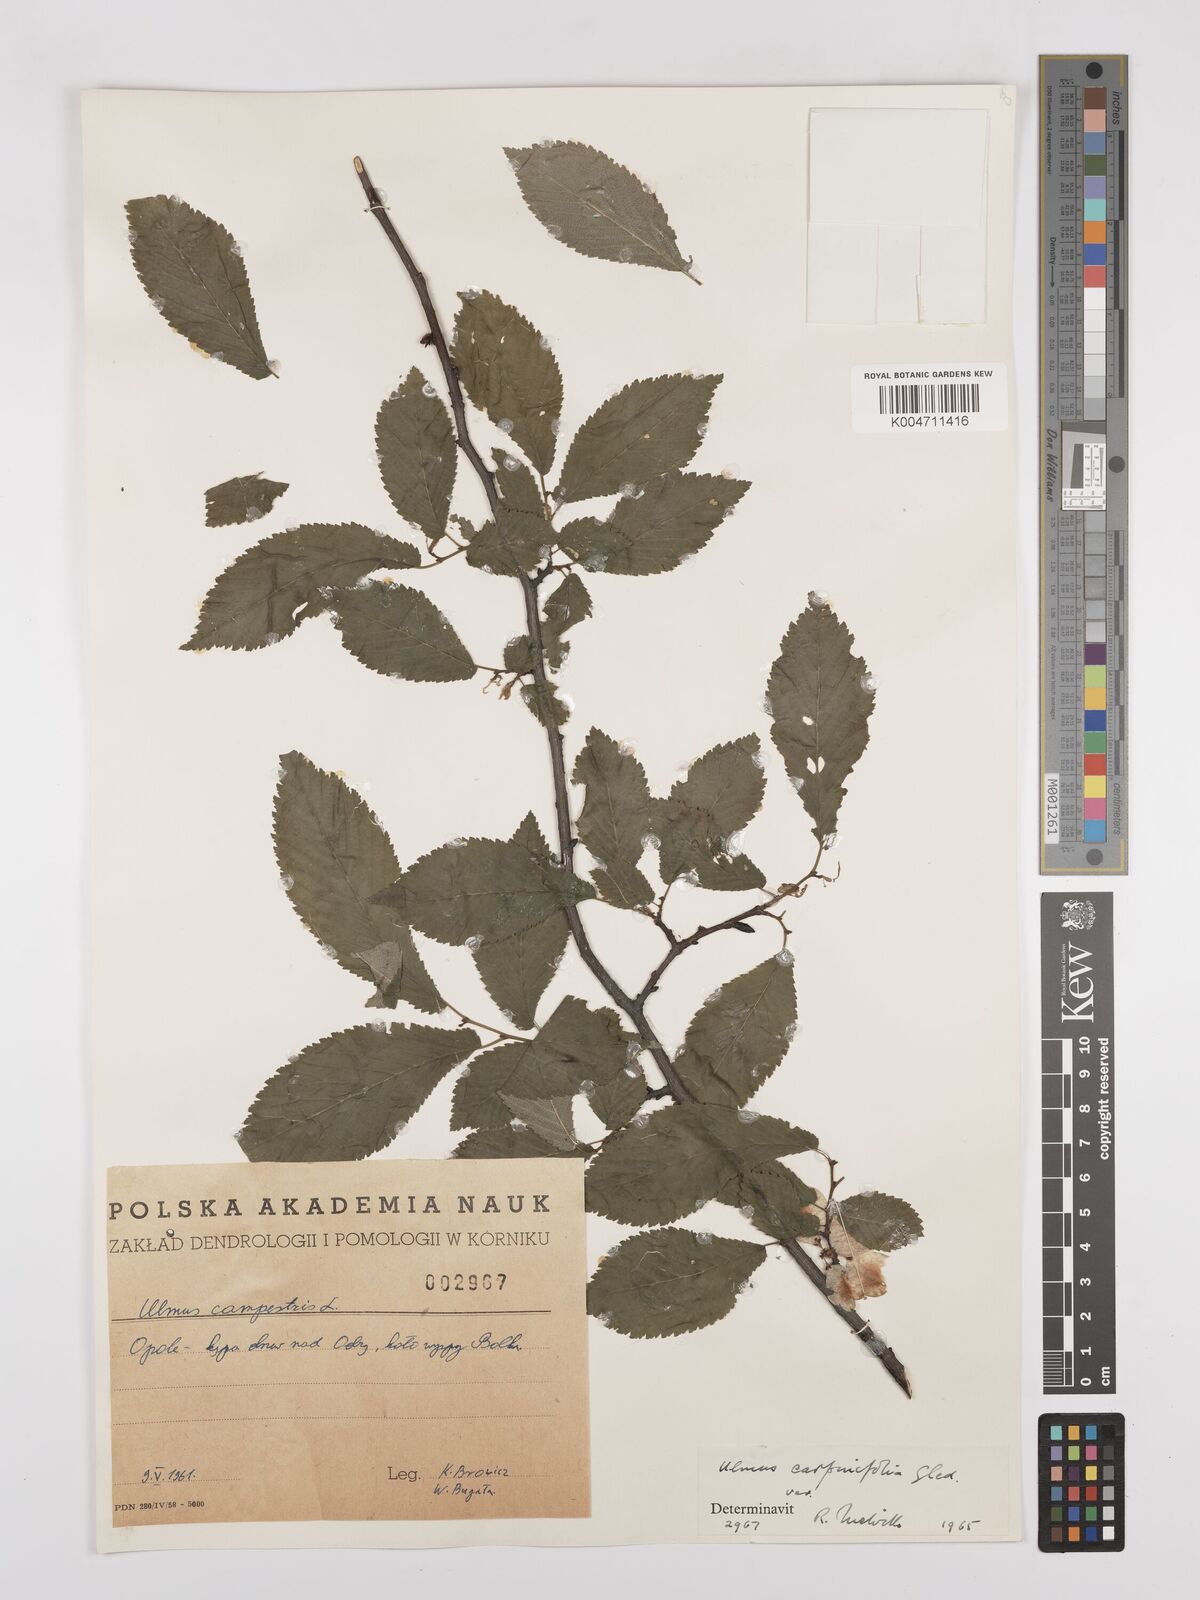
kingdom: Plantae
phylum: Tracheophyta
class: Magnoliopsida
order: Rosales
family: Ulmaceae
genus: Ulmus
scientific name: Ulmus minor
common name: Small-leaved elm
